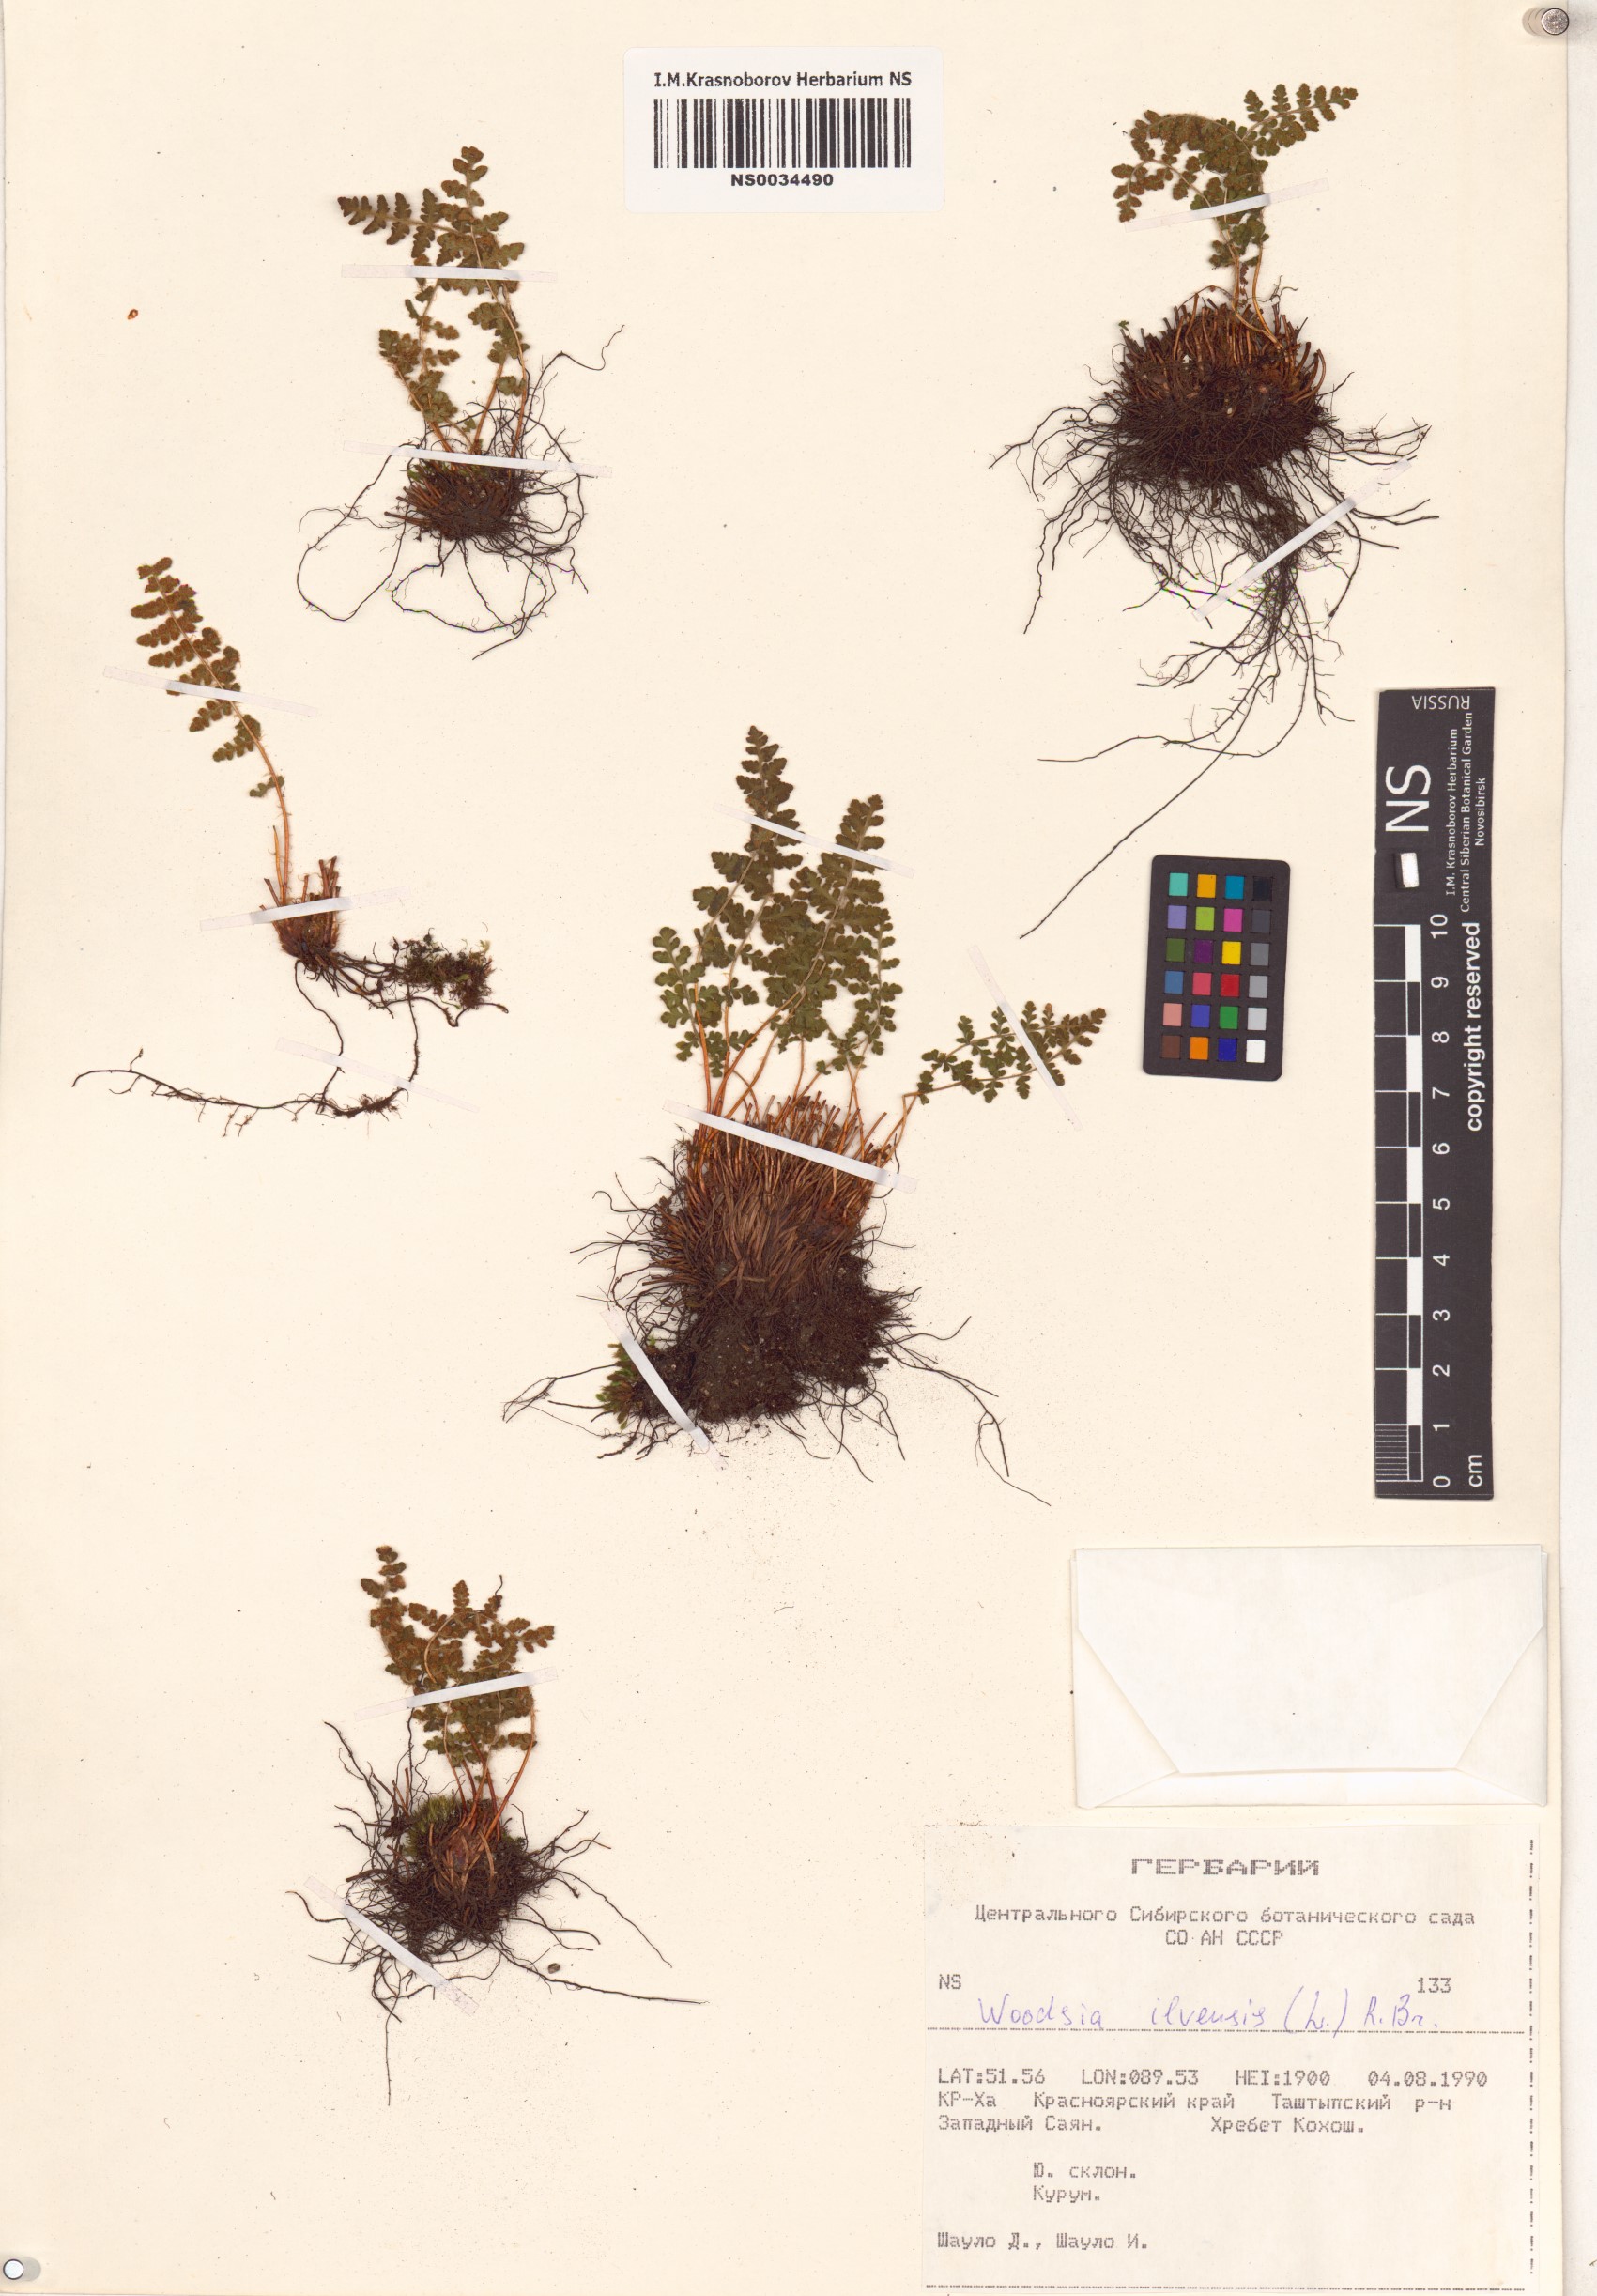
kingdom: Plantae
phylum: Tracheophyta
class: Polypodiopsida
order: Polypodiales
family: Woodsiaceae
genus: Woodsia
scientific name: Woodsia ilvensis
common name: Fragrant woodsia
